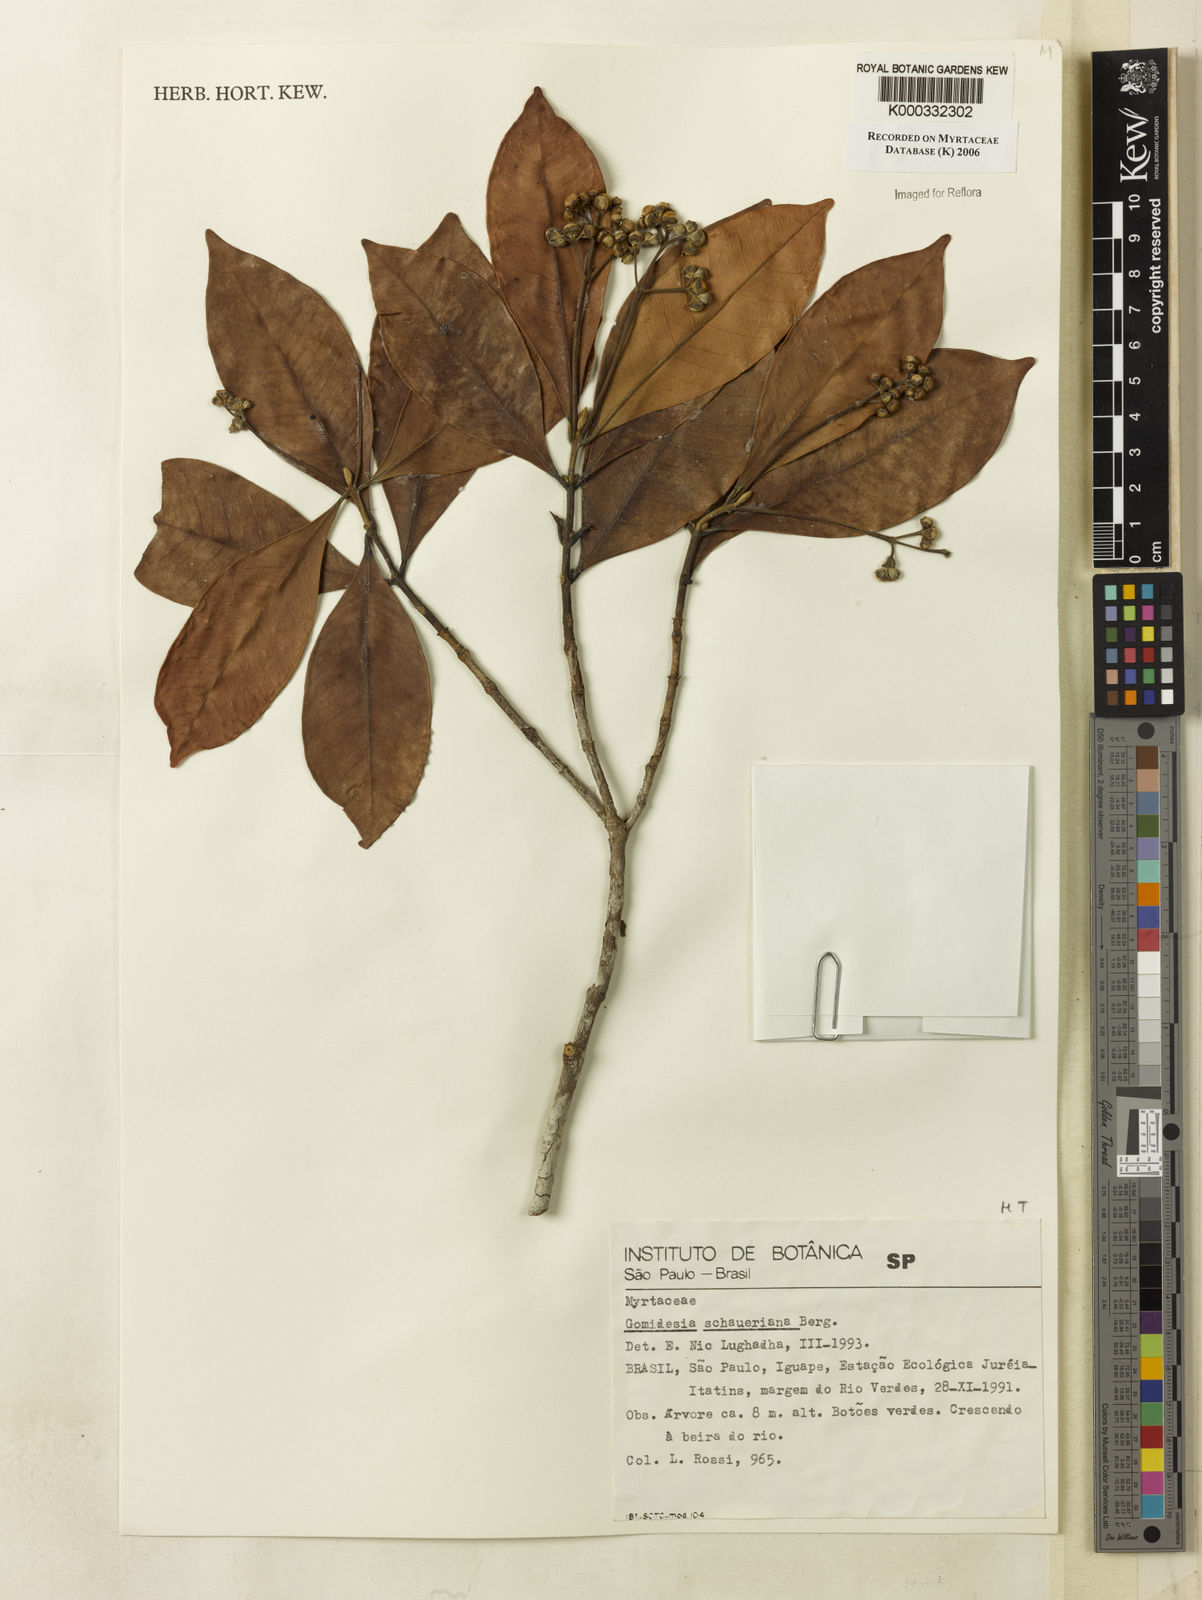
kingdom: Plantae
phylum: Tracheophyta
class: Magnoliopsida
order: Myrtales
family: Myrtaceae
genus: Myrcia
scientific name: Myrcia freyreissiana
